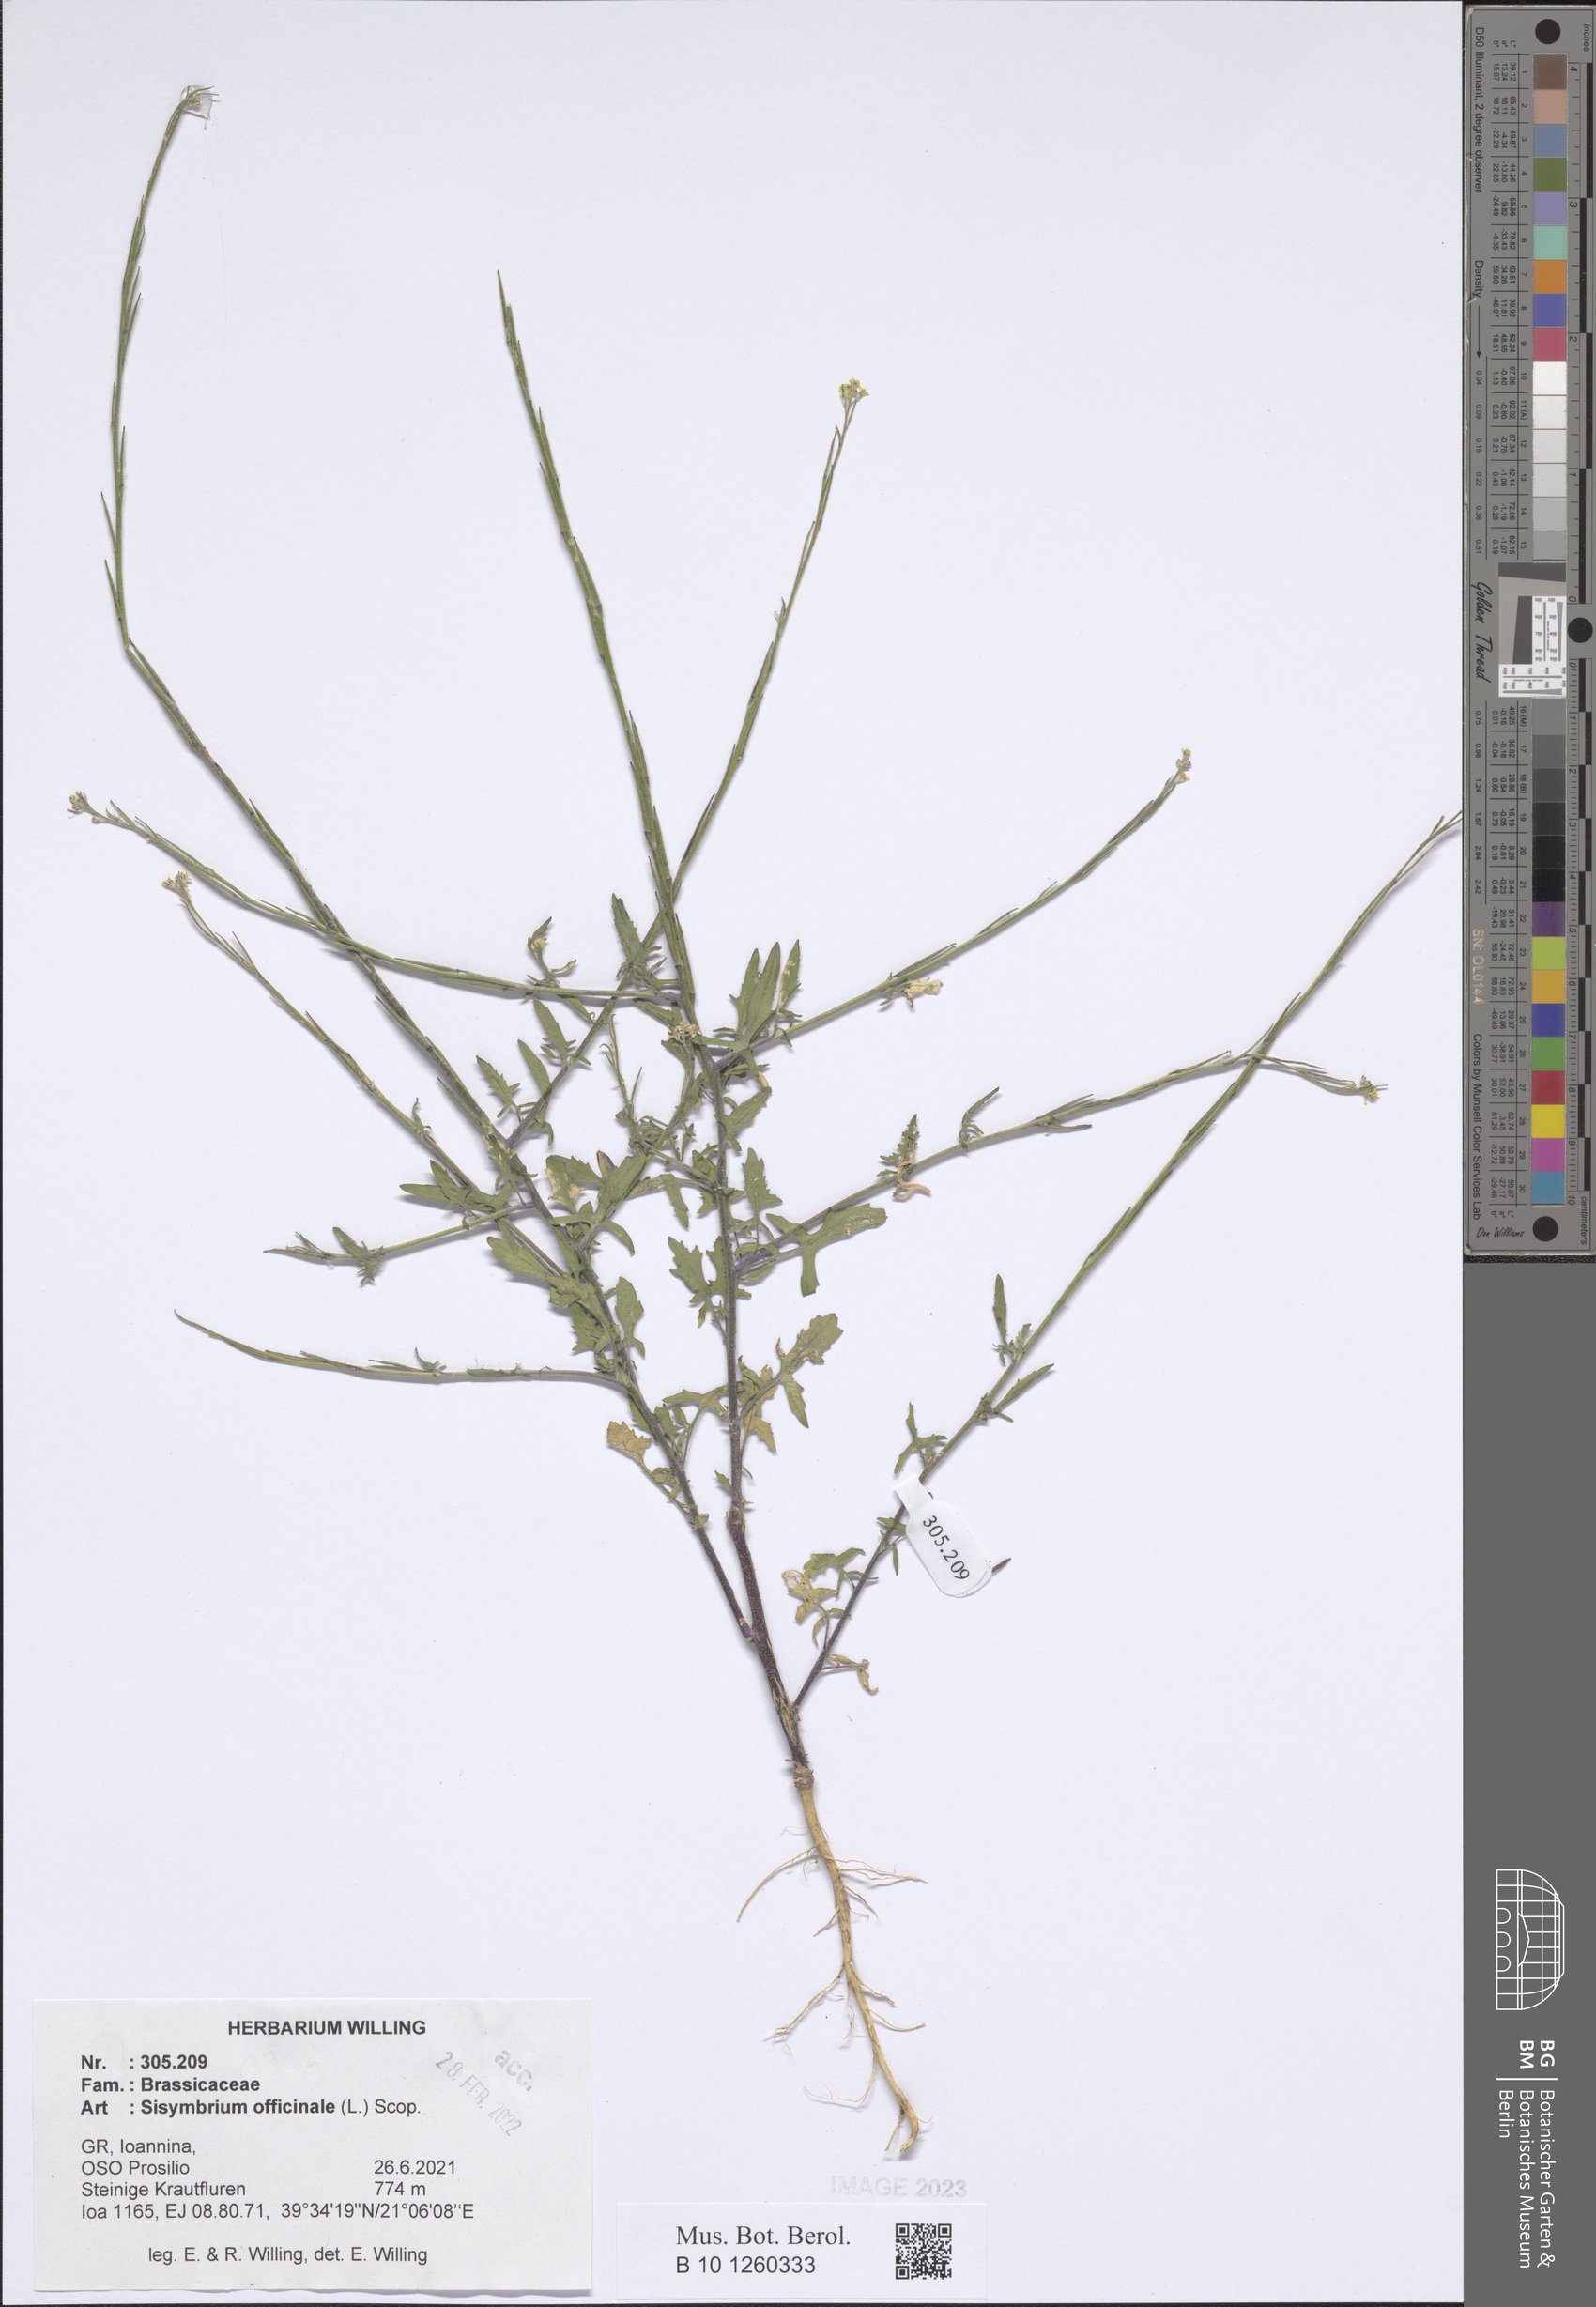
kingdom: Plantae
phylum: Tracheophyta
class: Magnoliopsida
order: Brassicales
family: Brassicaceae
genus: Sisymbrium
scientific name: Sisymbrium officinale
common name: Hedge mustard
